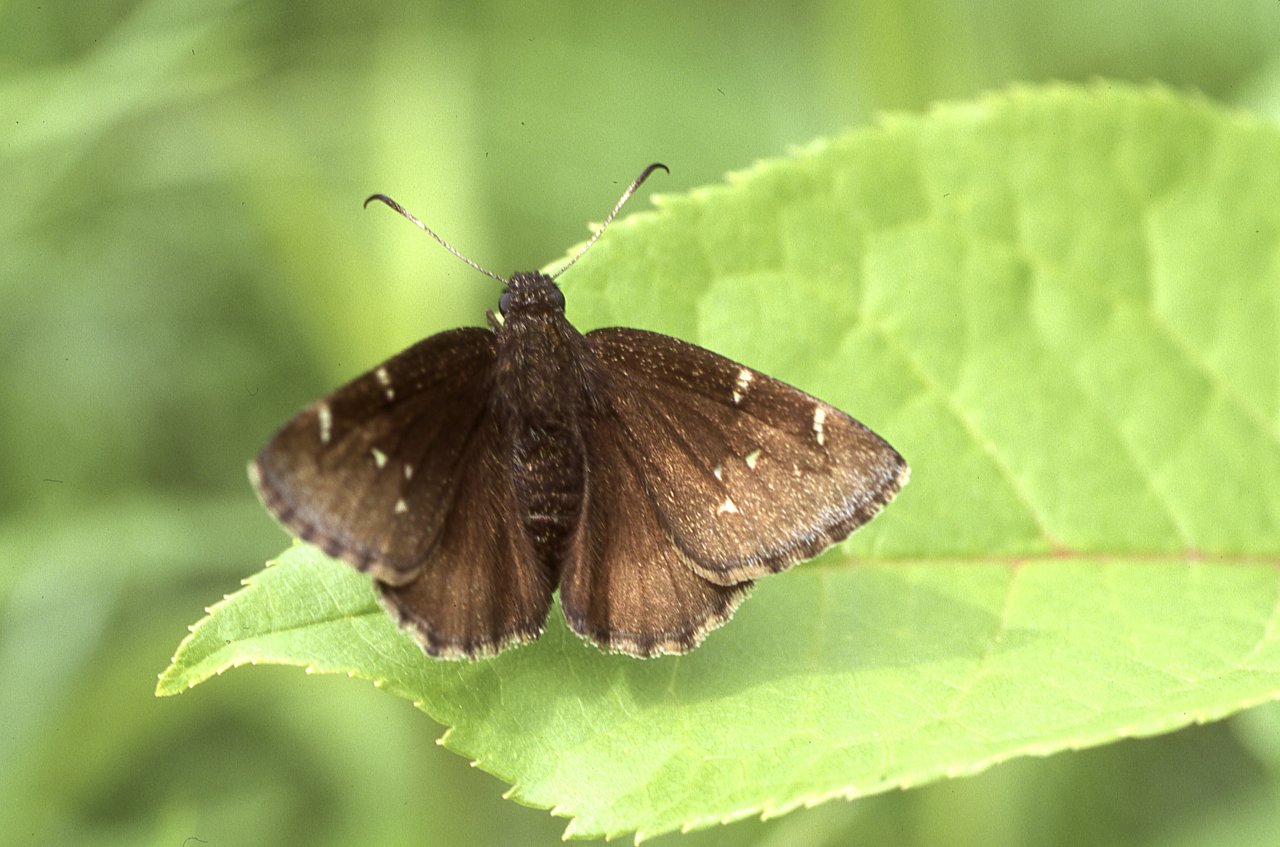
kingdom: Animalia
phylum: Arthropoda
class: Insecta
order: Lepidoptera
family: Hesperiidae
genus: Autochton
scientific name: Autochton
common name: Northern Cloudywing
